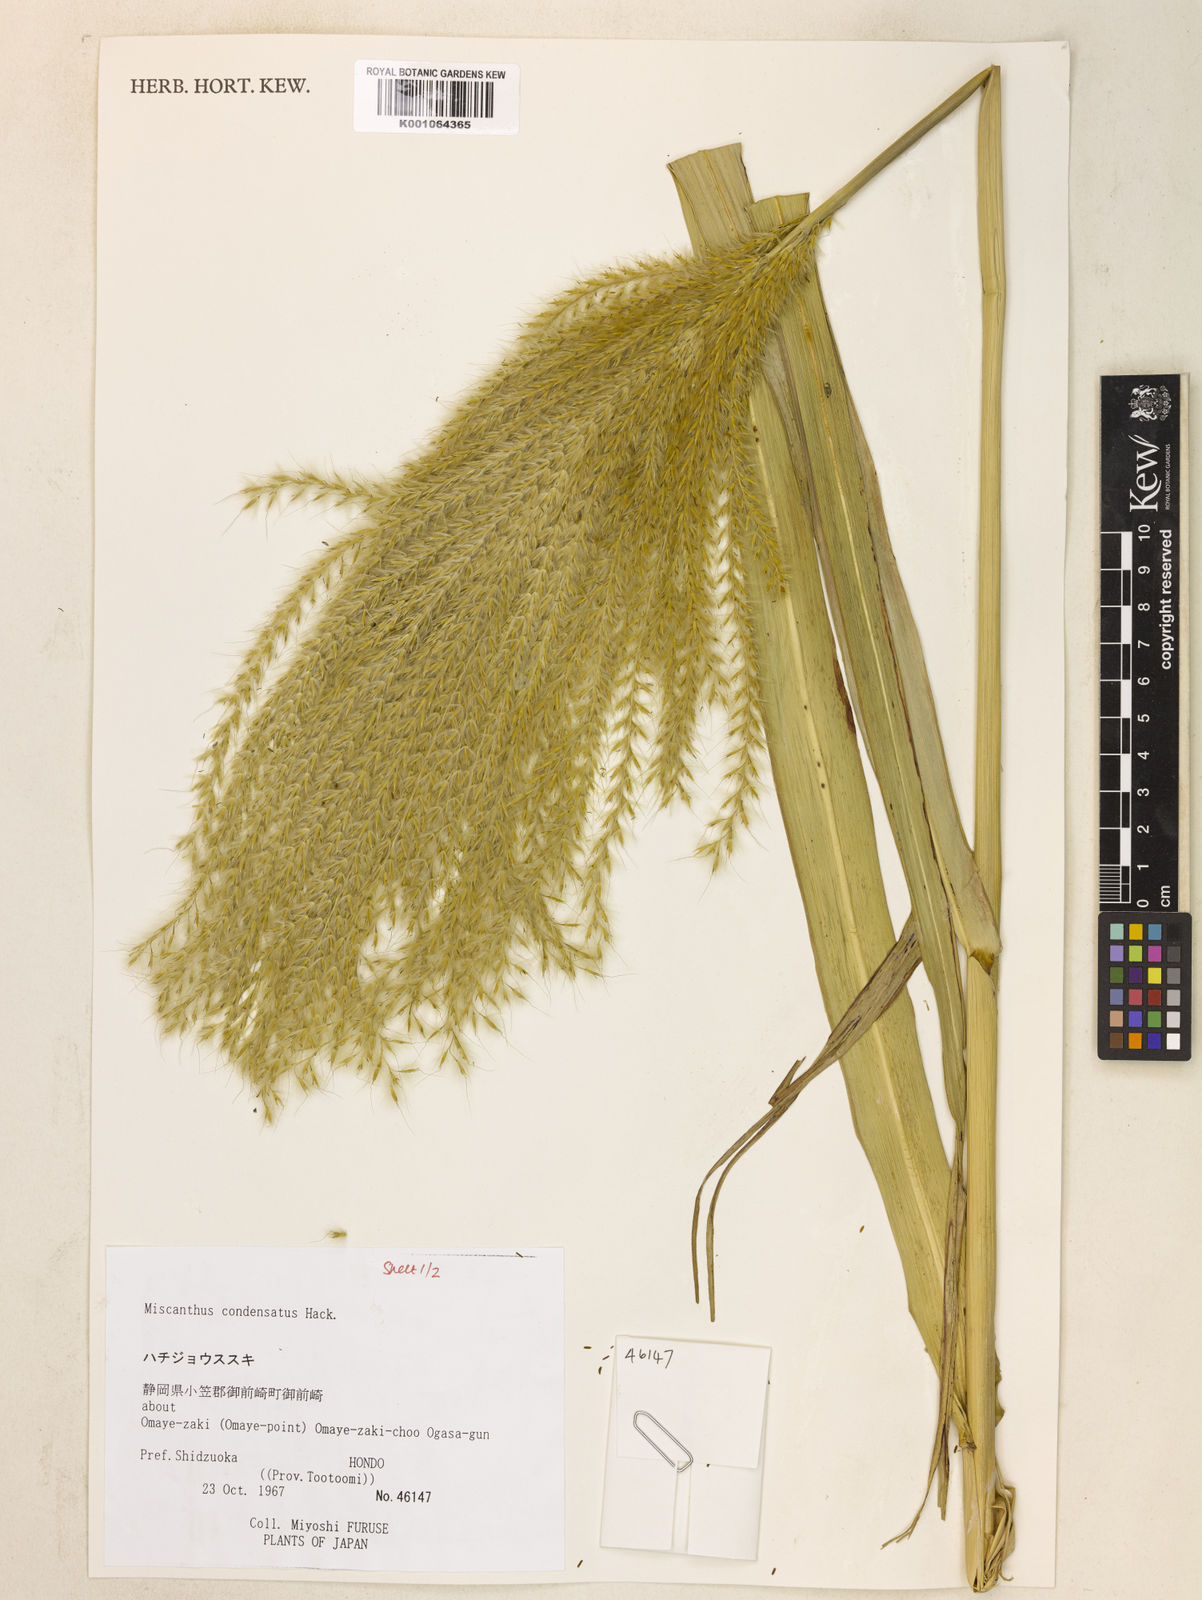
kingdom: Plantae
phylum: Tracheophyta
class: Liliopsida
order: Poales
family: Poaceae
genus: Miscanthus
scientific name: Miscanthus sinensis
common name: Chinese silvergrass
